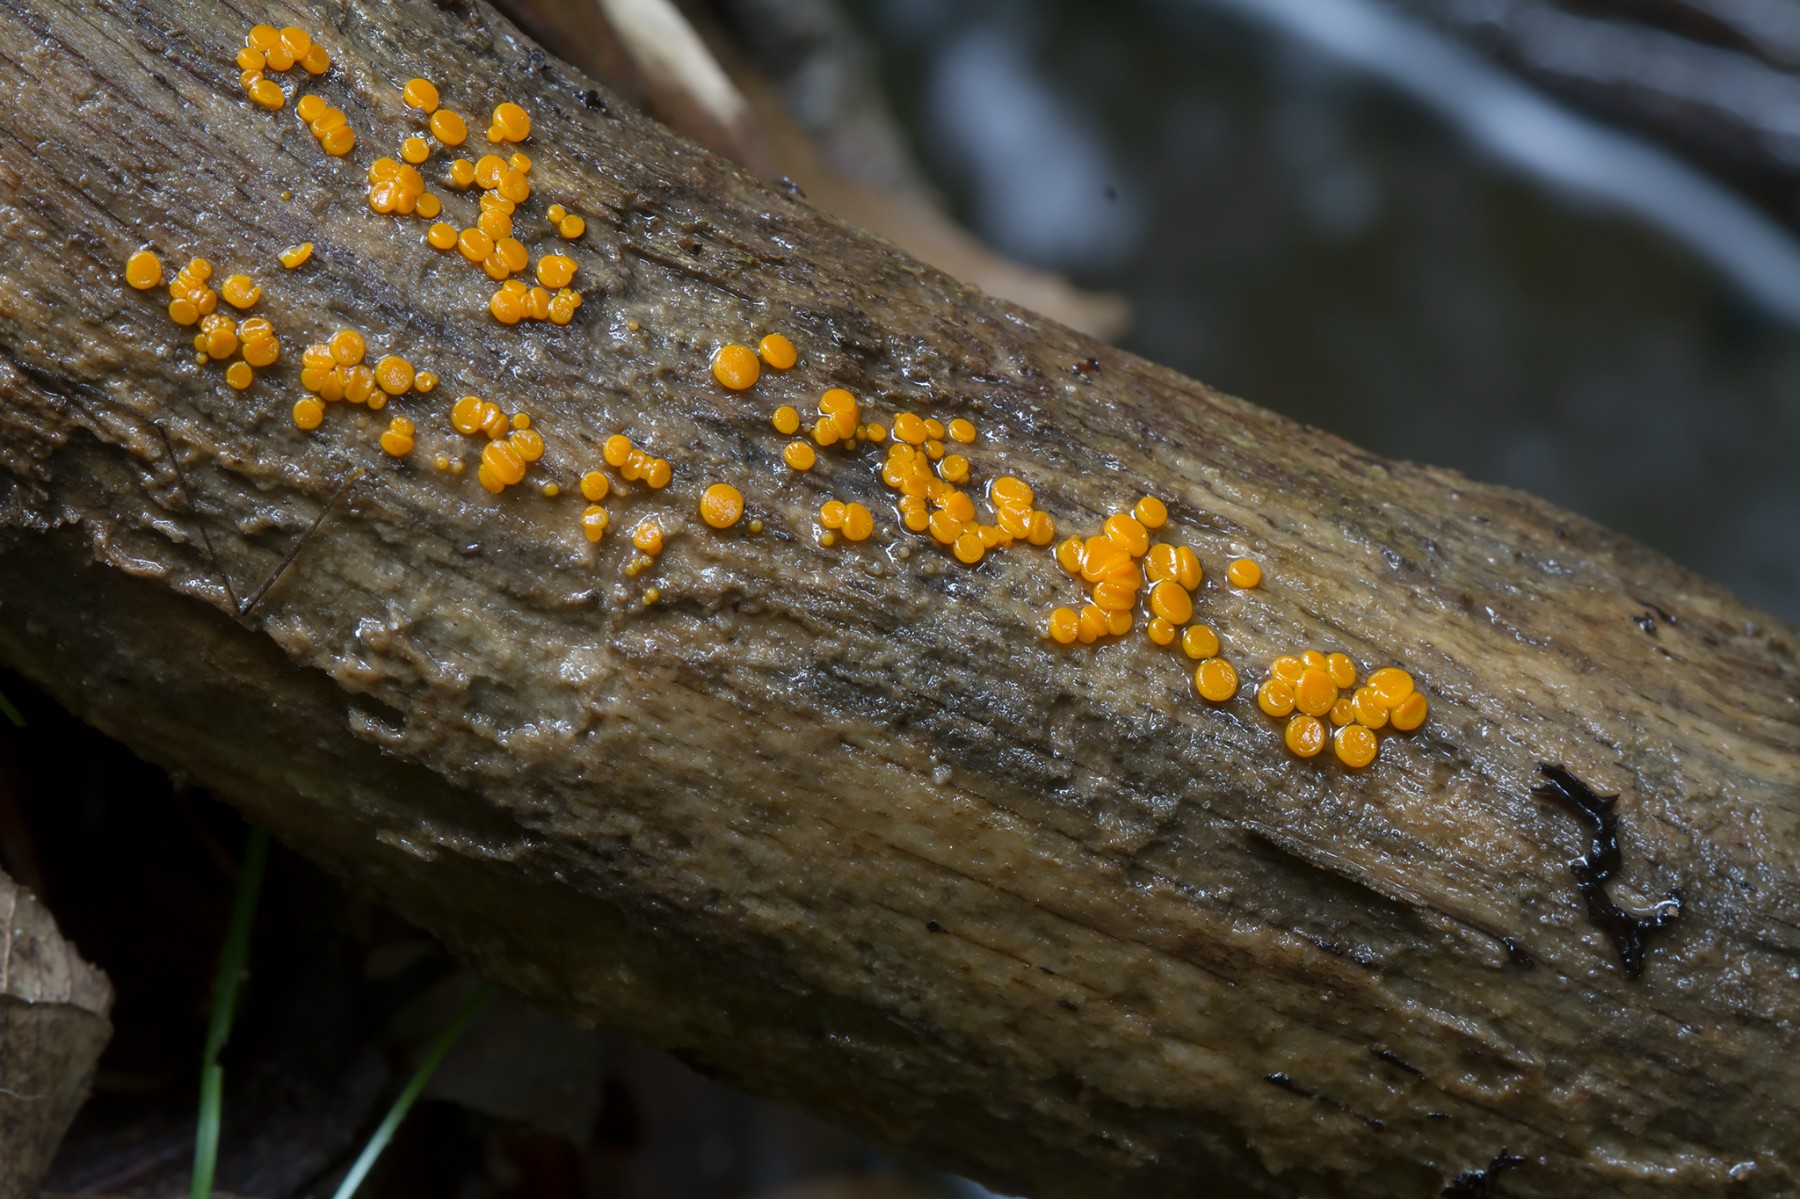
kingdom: Fungi
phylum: Ascomycota
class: Pezizomycetes
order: Pezizales
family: Pyronemataceae
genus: Miladina
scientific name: Miladina lecithina
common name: vandbæger
